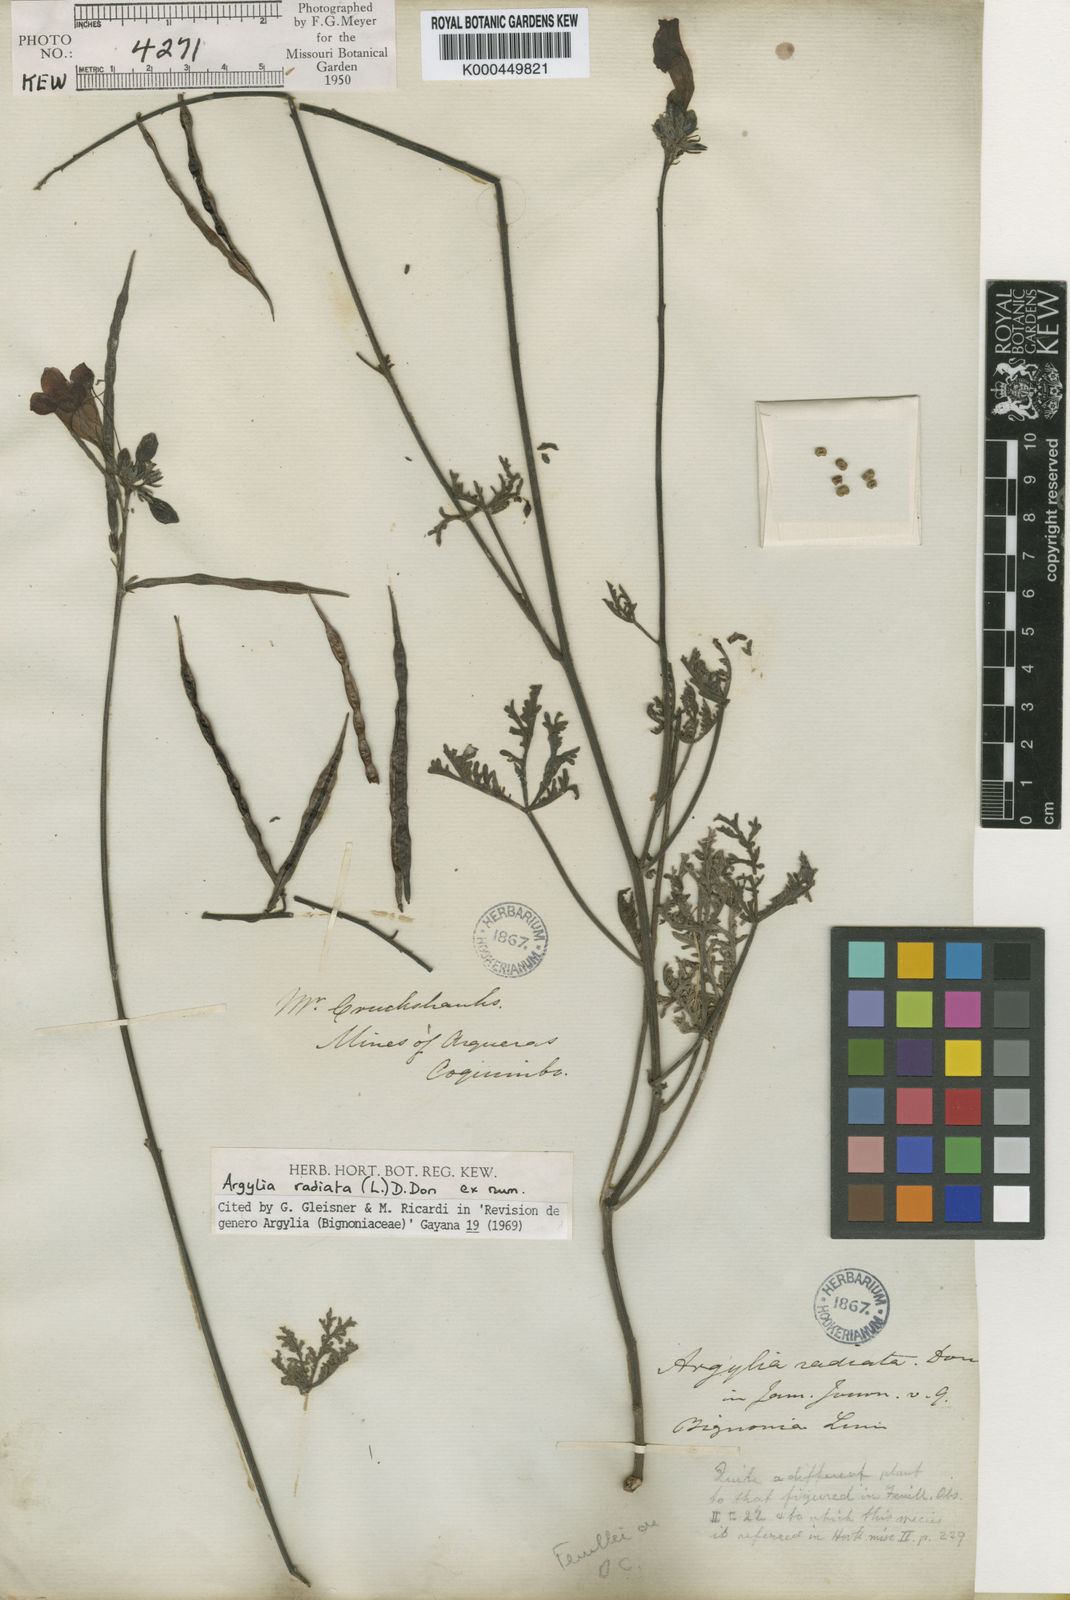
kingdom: Plantae
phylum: Tracheophyta
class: Magnoliopsida
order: Lamiales
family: Bignoniaceae
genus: Argylia
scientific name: Argylia radiata
